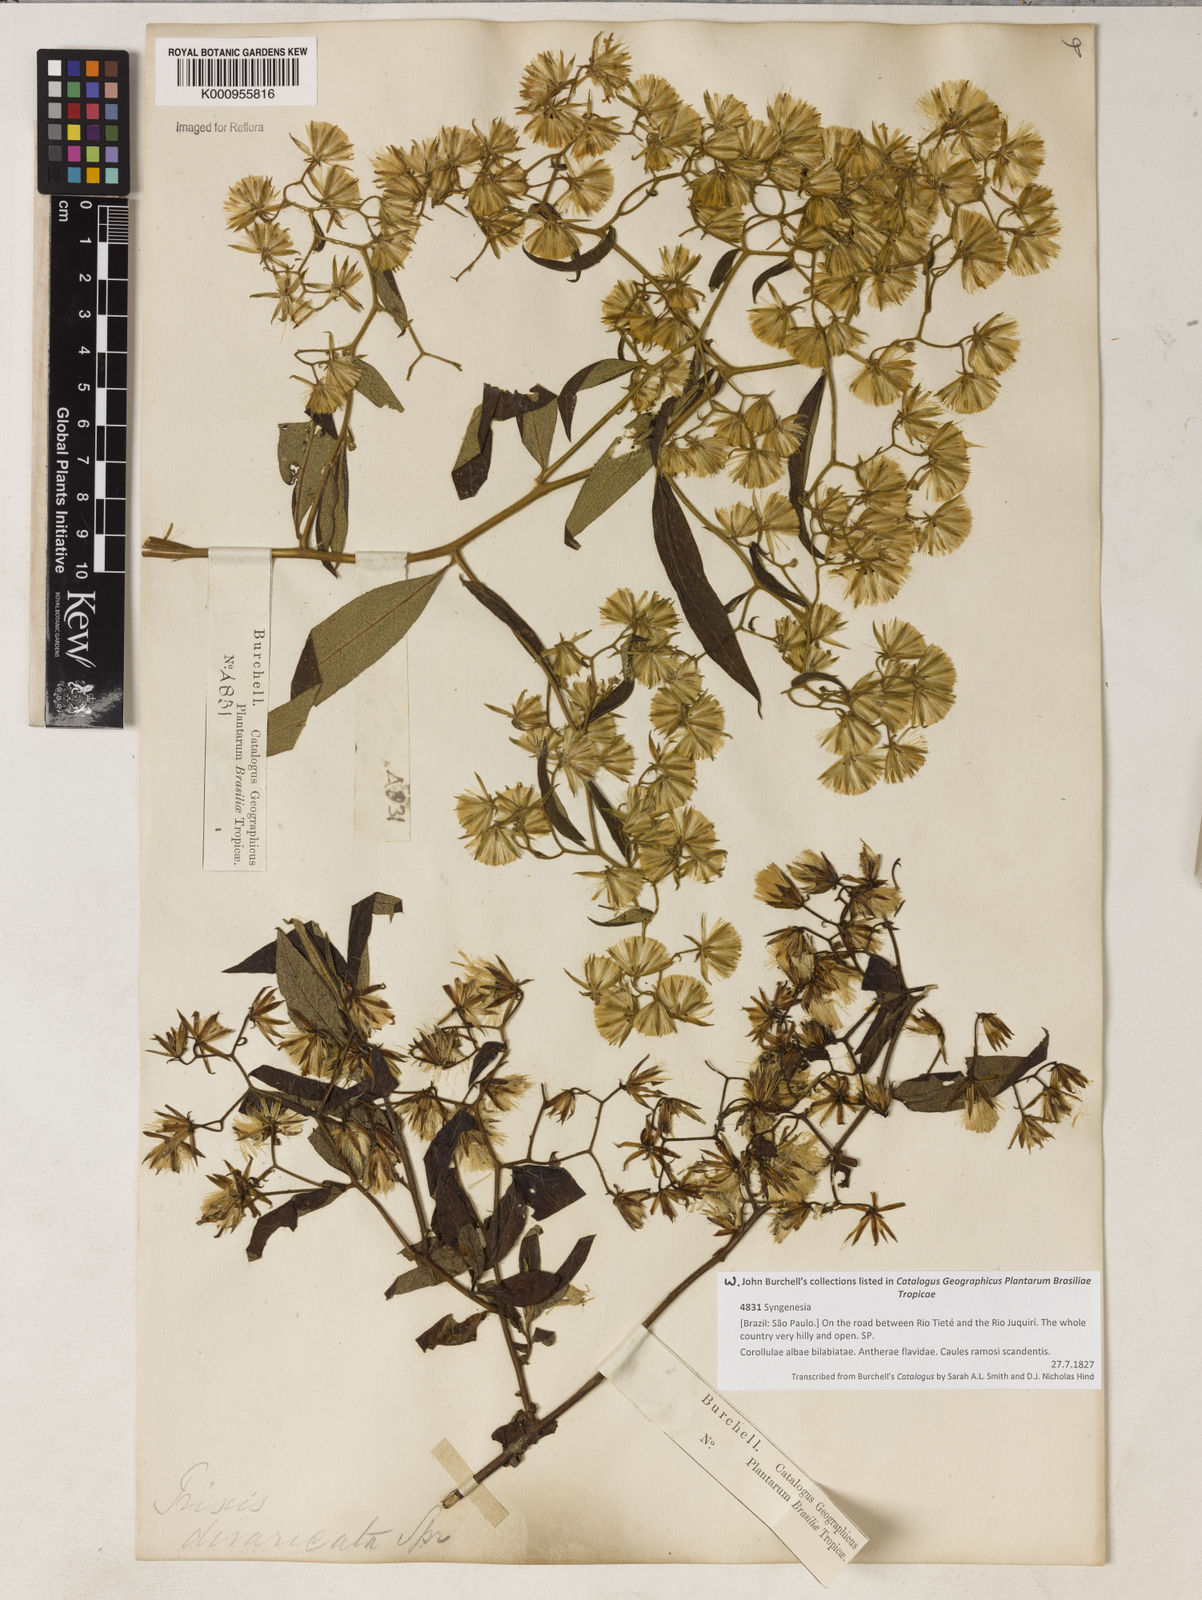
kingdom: Plantae
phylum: Tracheophyta
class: Magnoliopsida
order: Asterales
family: Asteraceae
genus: Trixis
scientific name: Trixis divaricata
